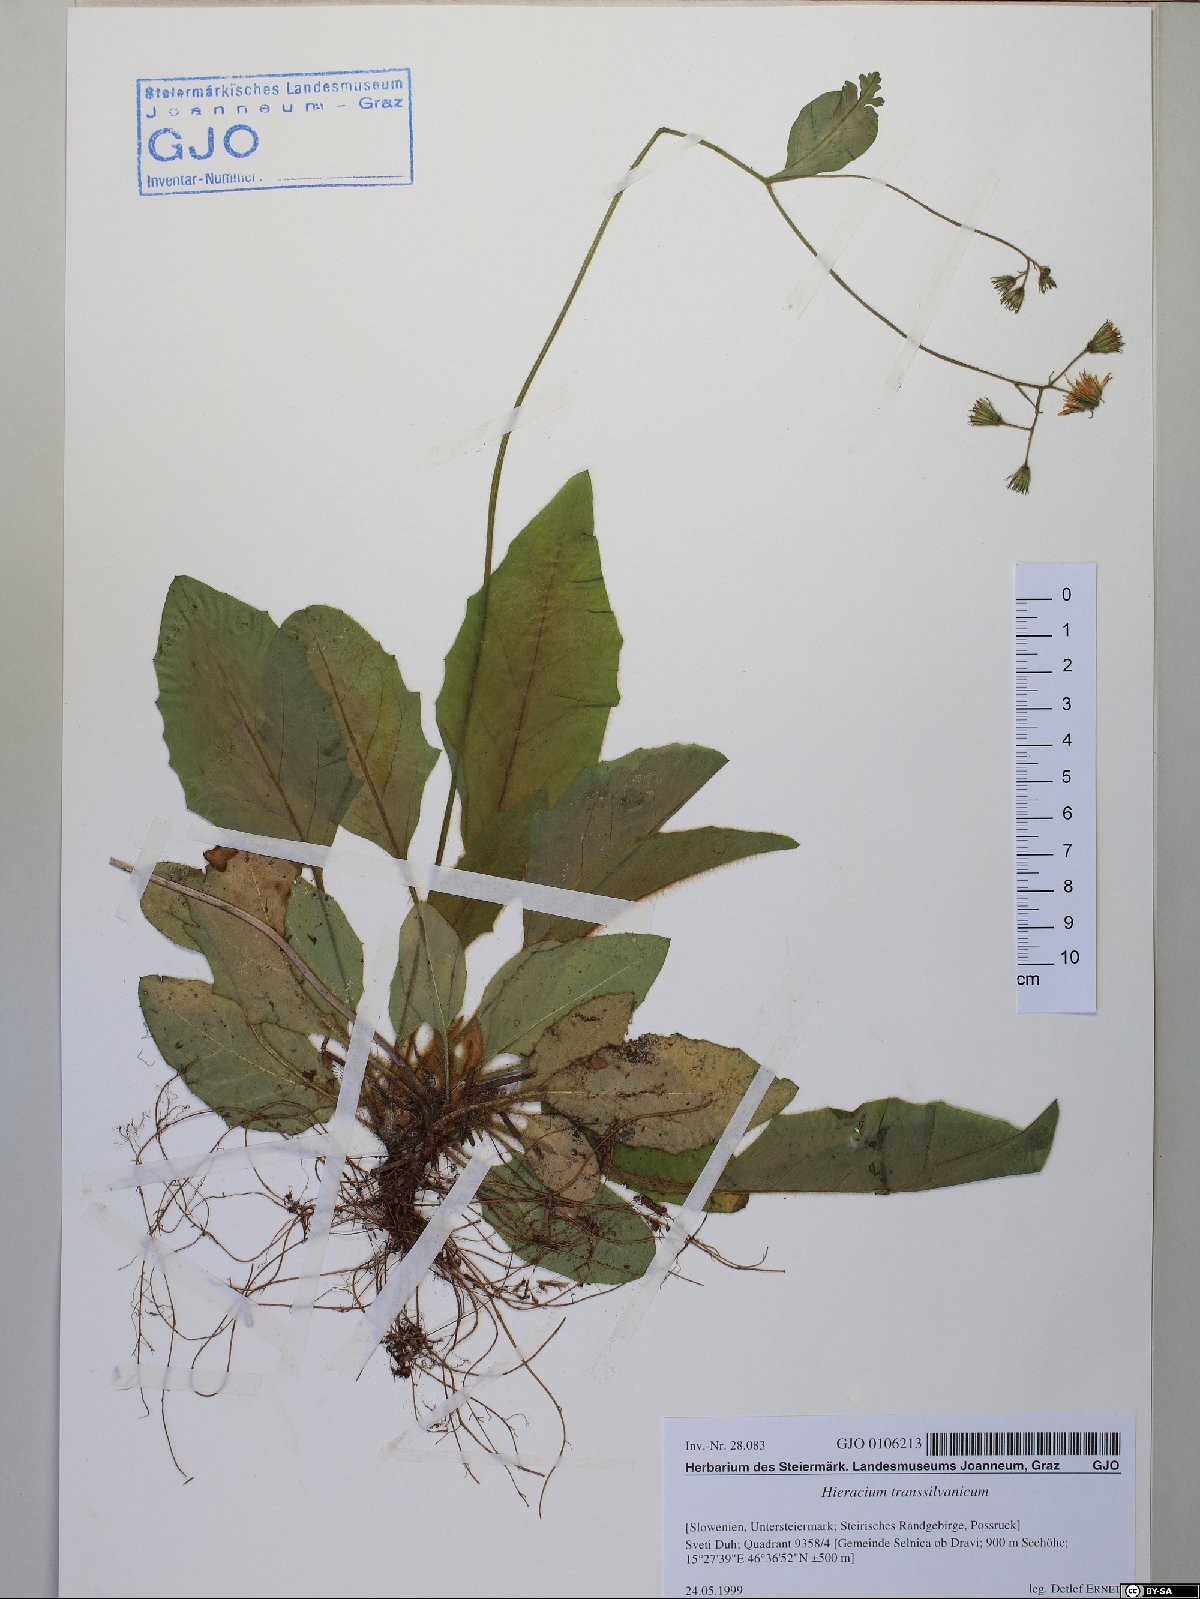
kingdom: Plantae
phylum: Tracheophyta
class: Magnoliopsida
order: Asterales
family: Asteraceae
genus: Hieracium
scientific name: Hieracium transylvanicum
